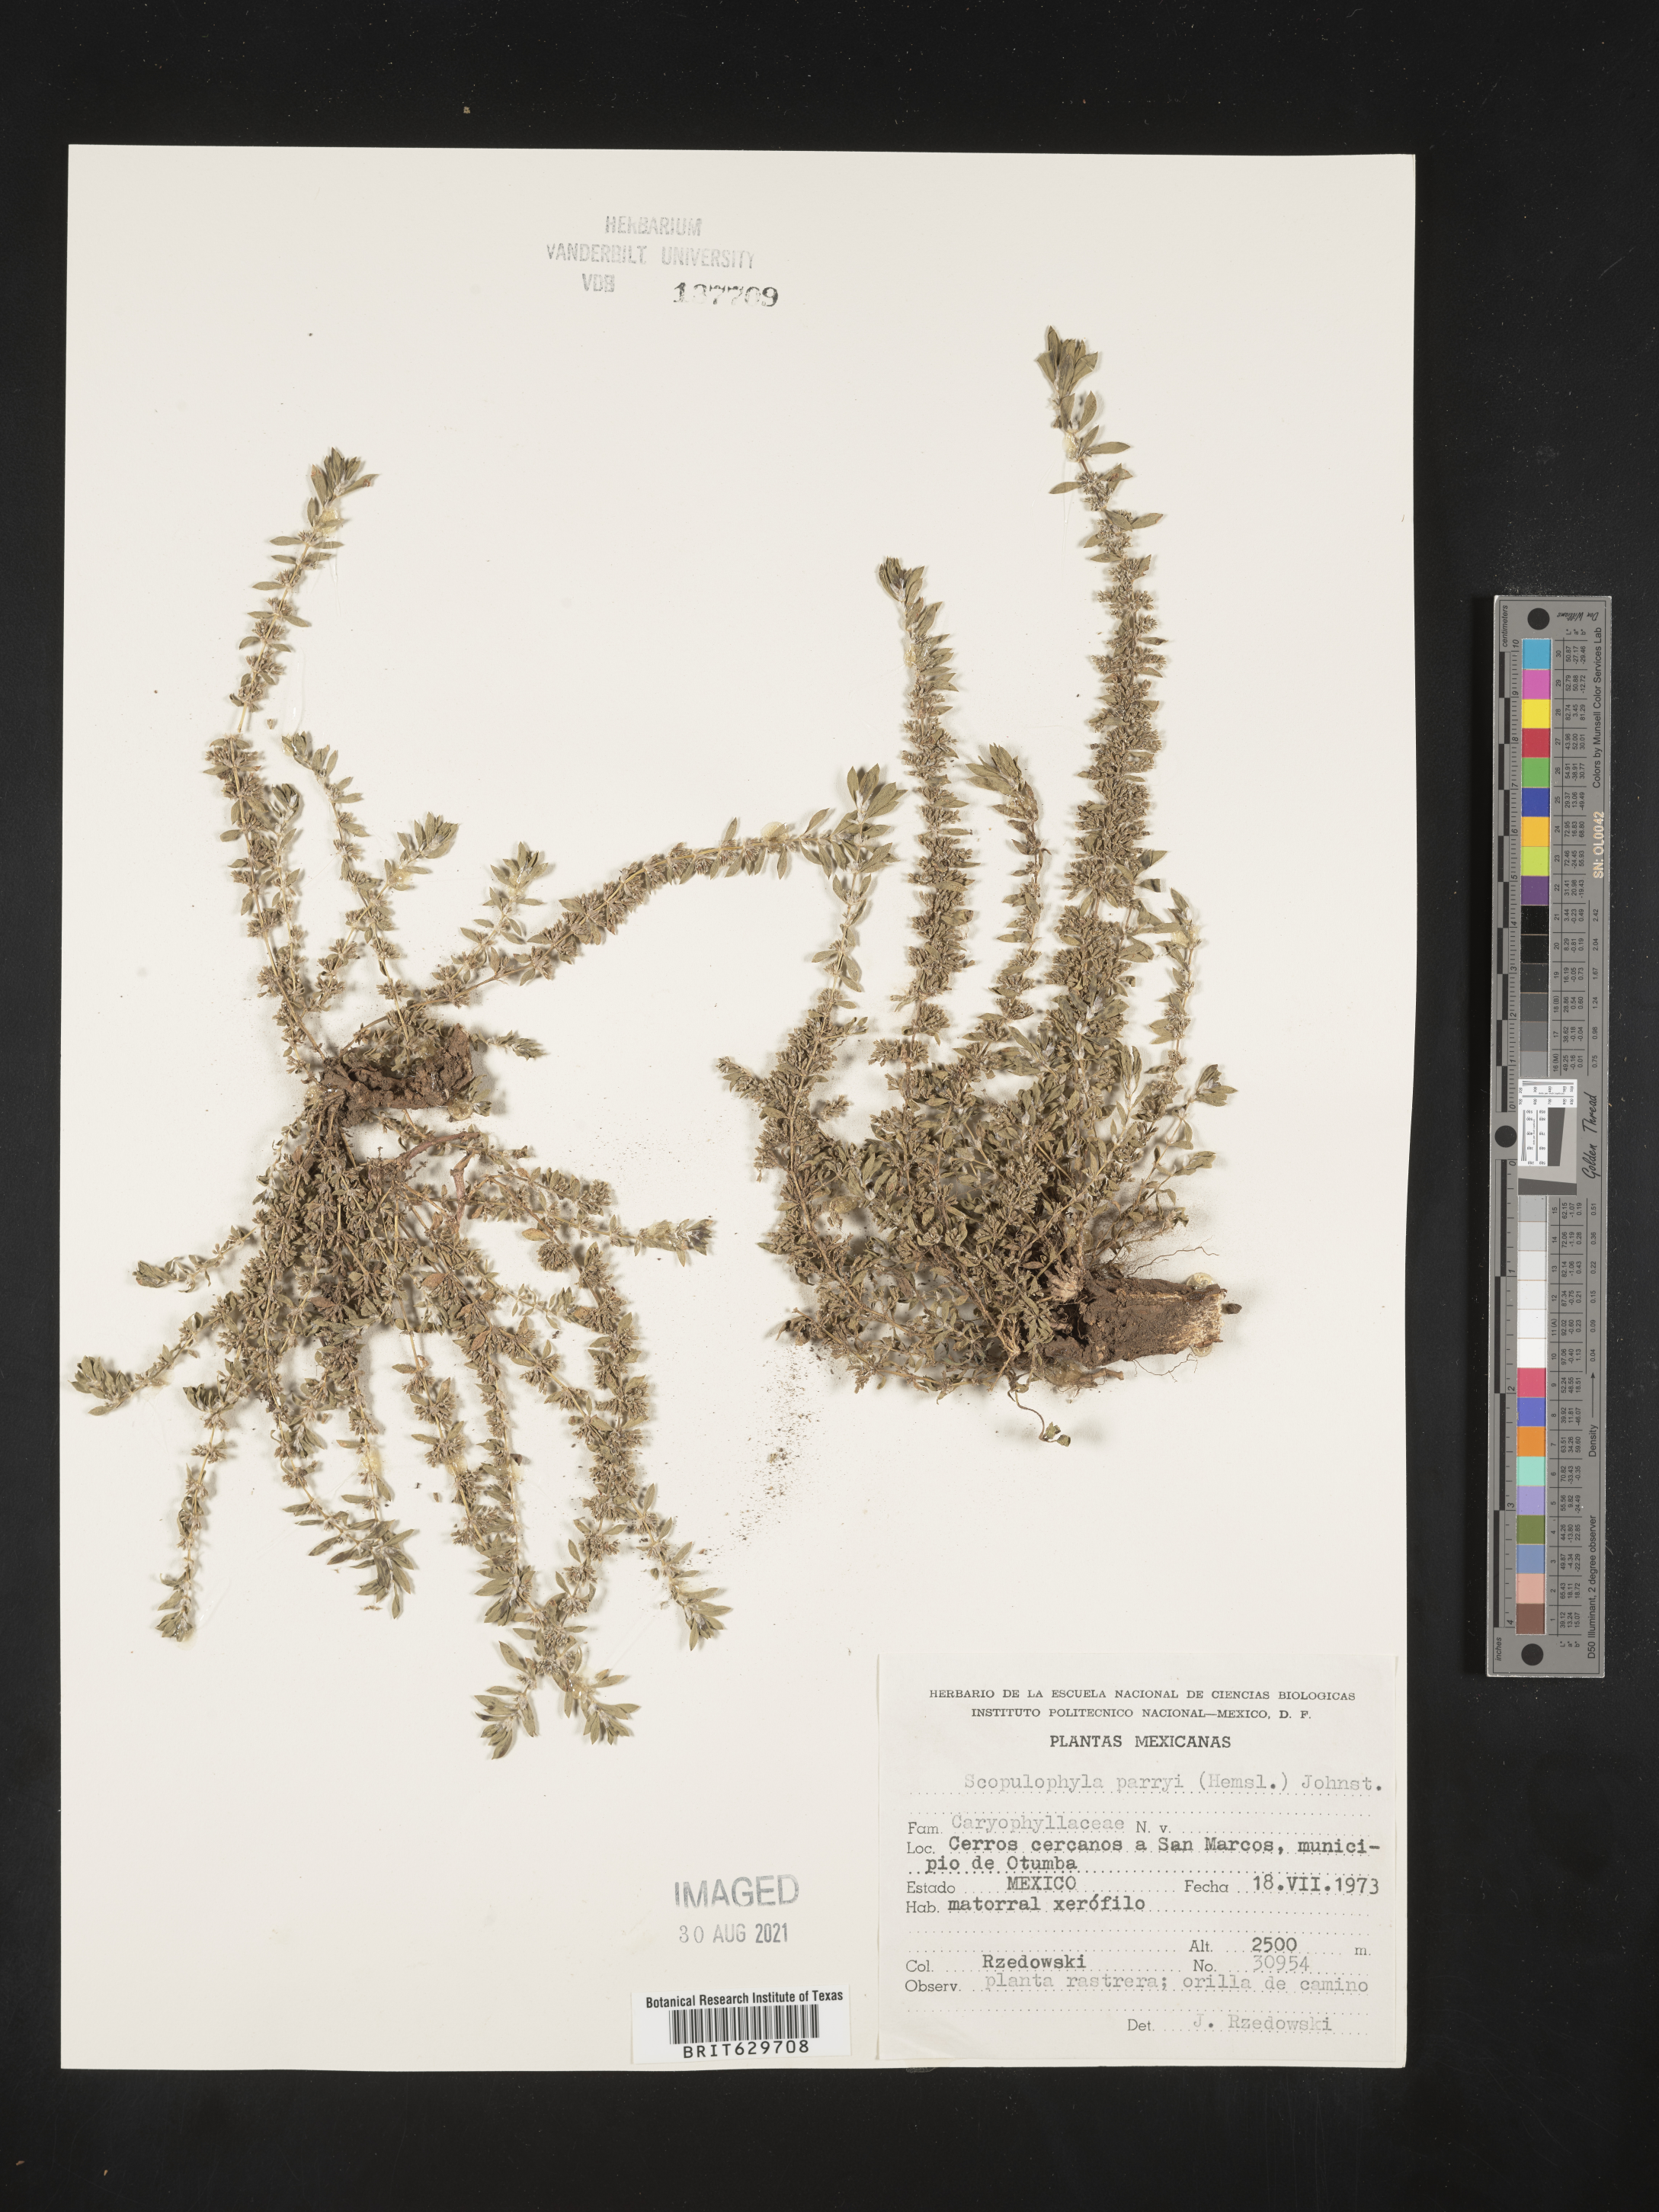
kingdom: Plantae
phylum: Tracheophyta
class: Magnoliopsida
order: Caryophyllales
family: Caryophyllaceae
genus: Scopulophila
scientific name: Scopulophila
